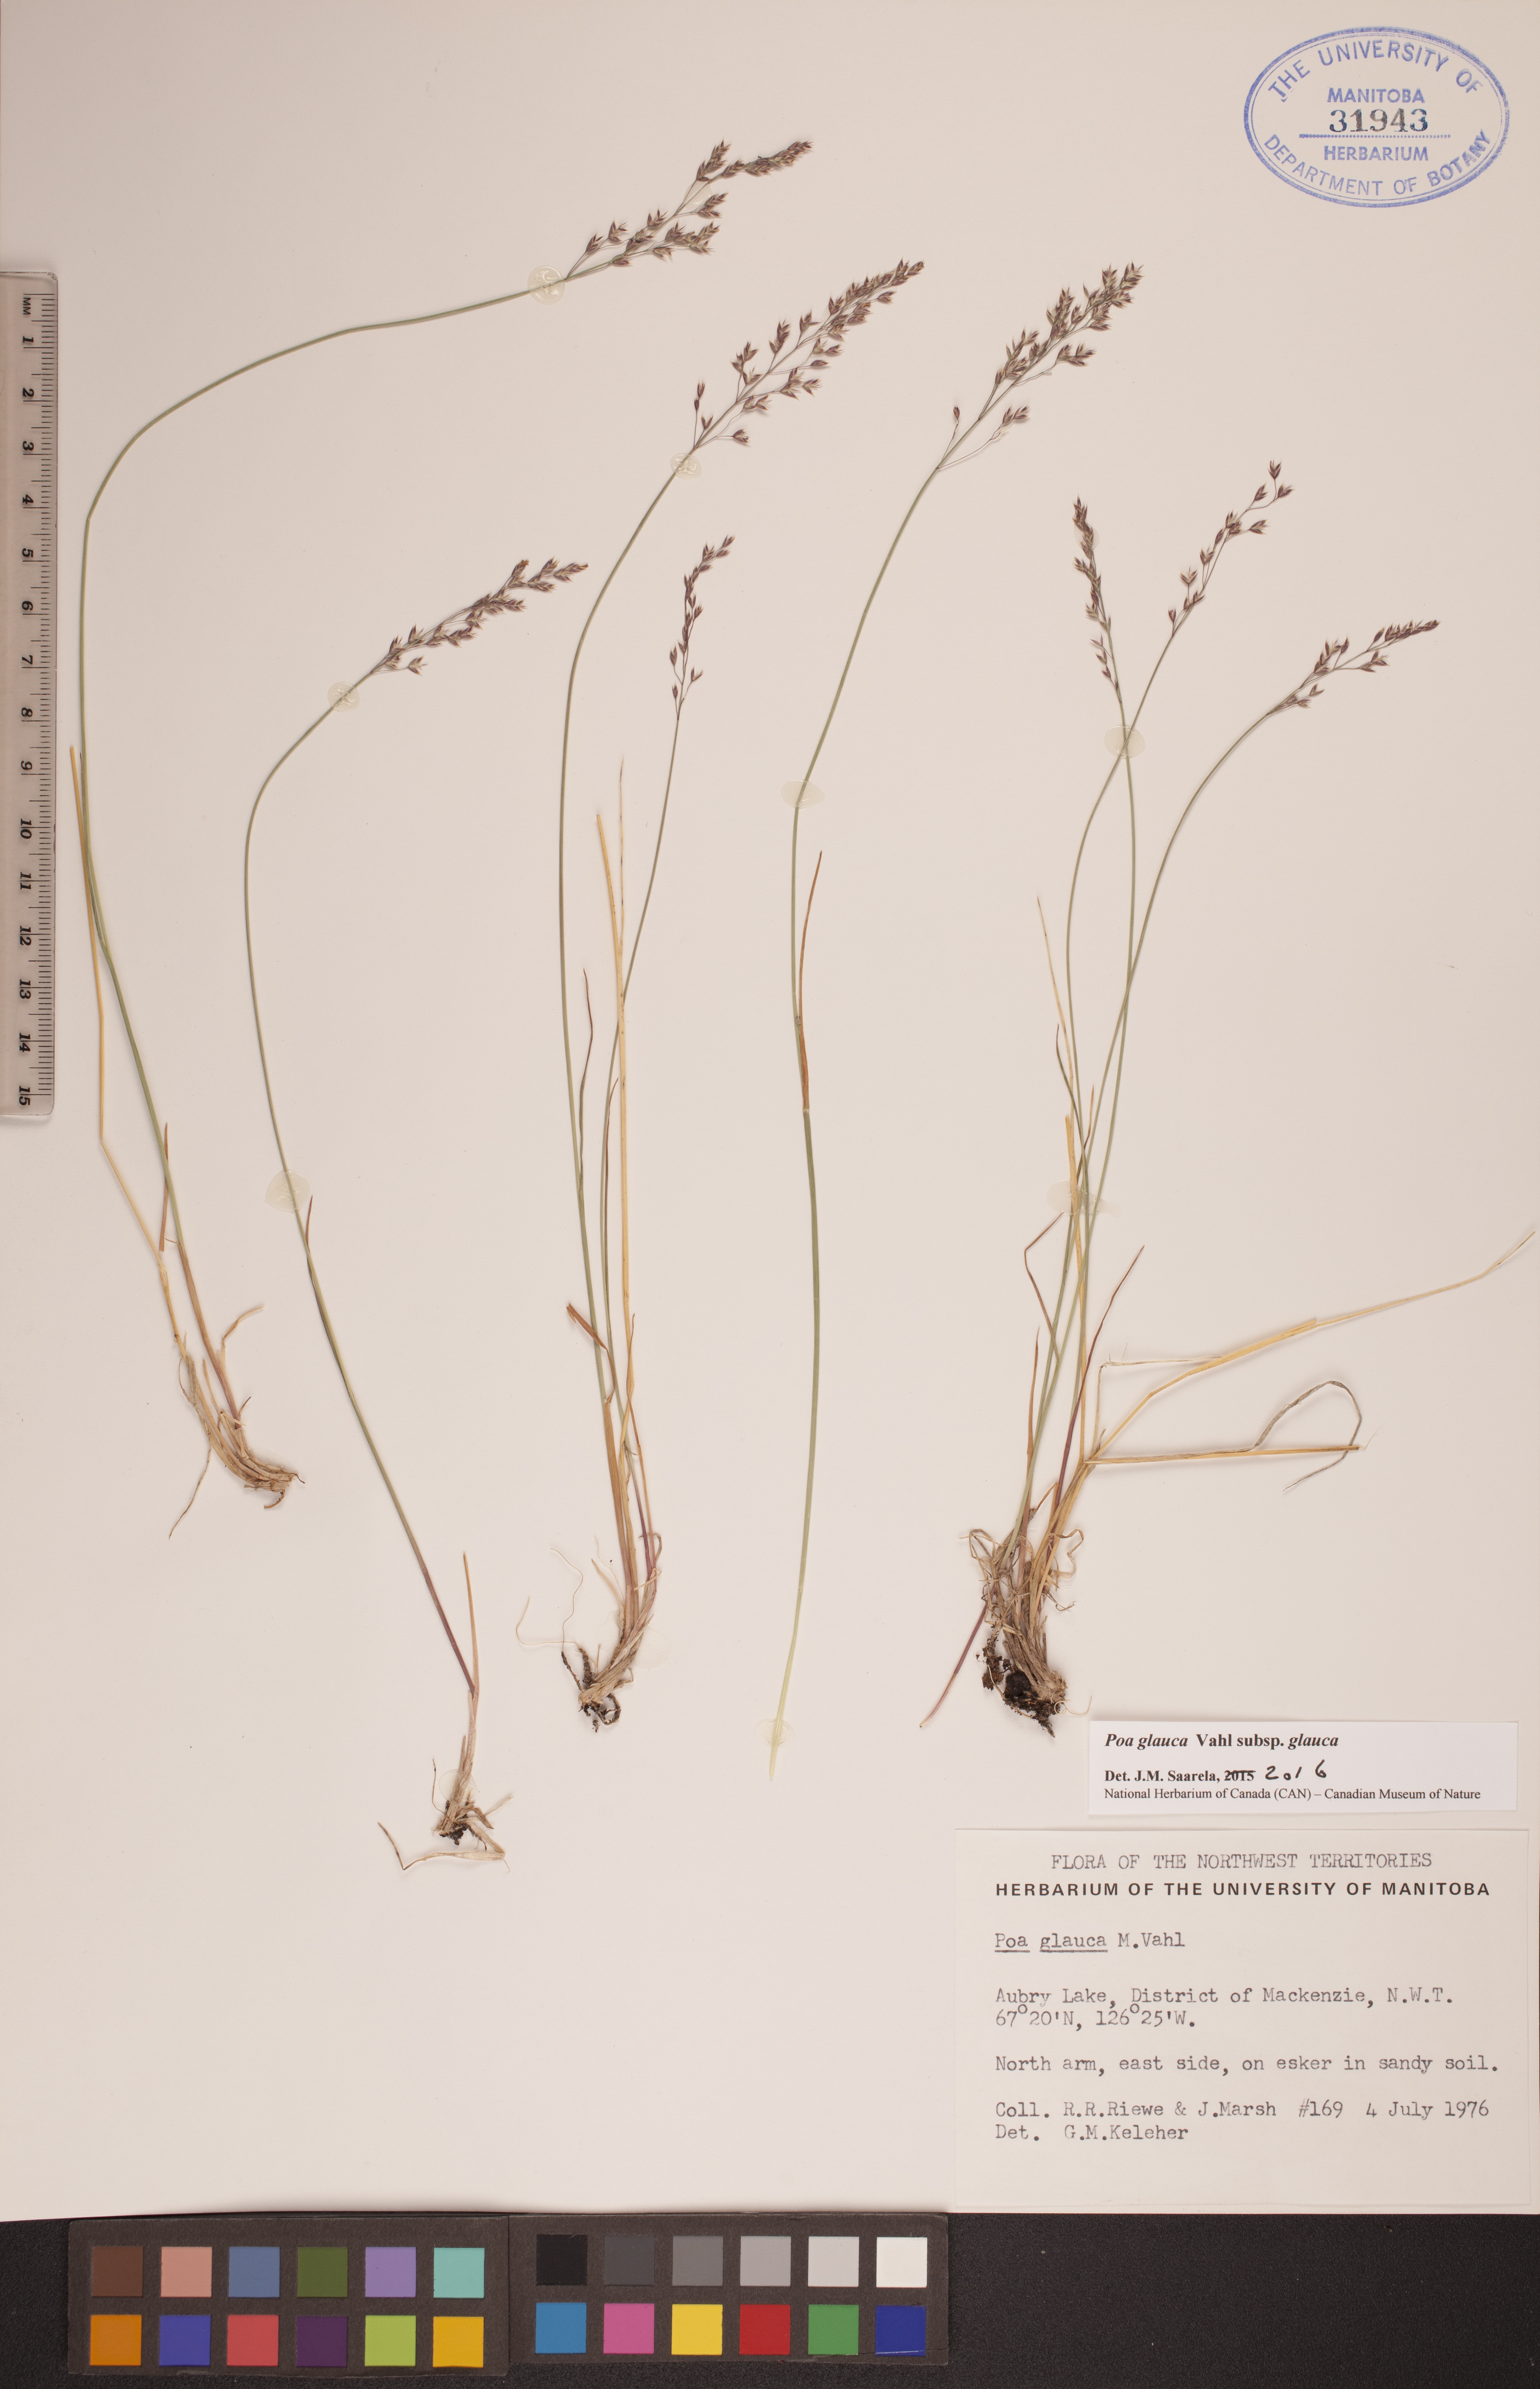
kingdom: Plantae
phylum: Tracheophyta
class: Liliopsida
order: Poales
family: Poaceae
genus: Poa
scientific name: Poa glauca
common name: Glaucous bluegrass
